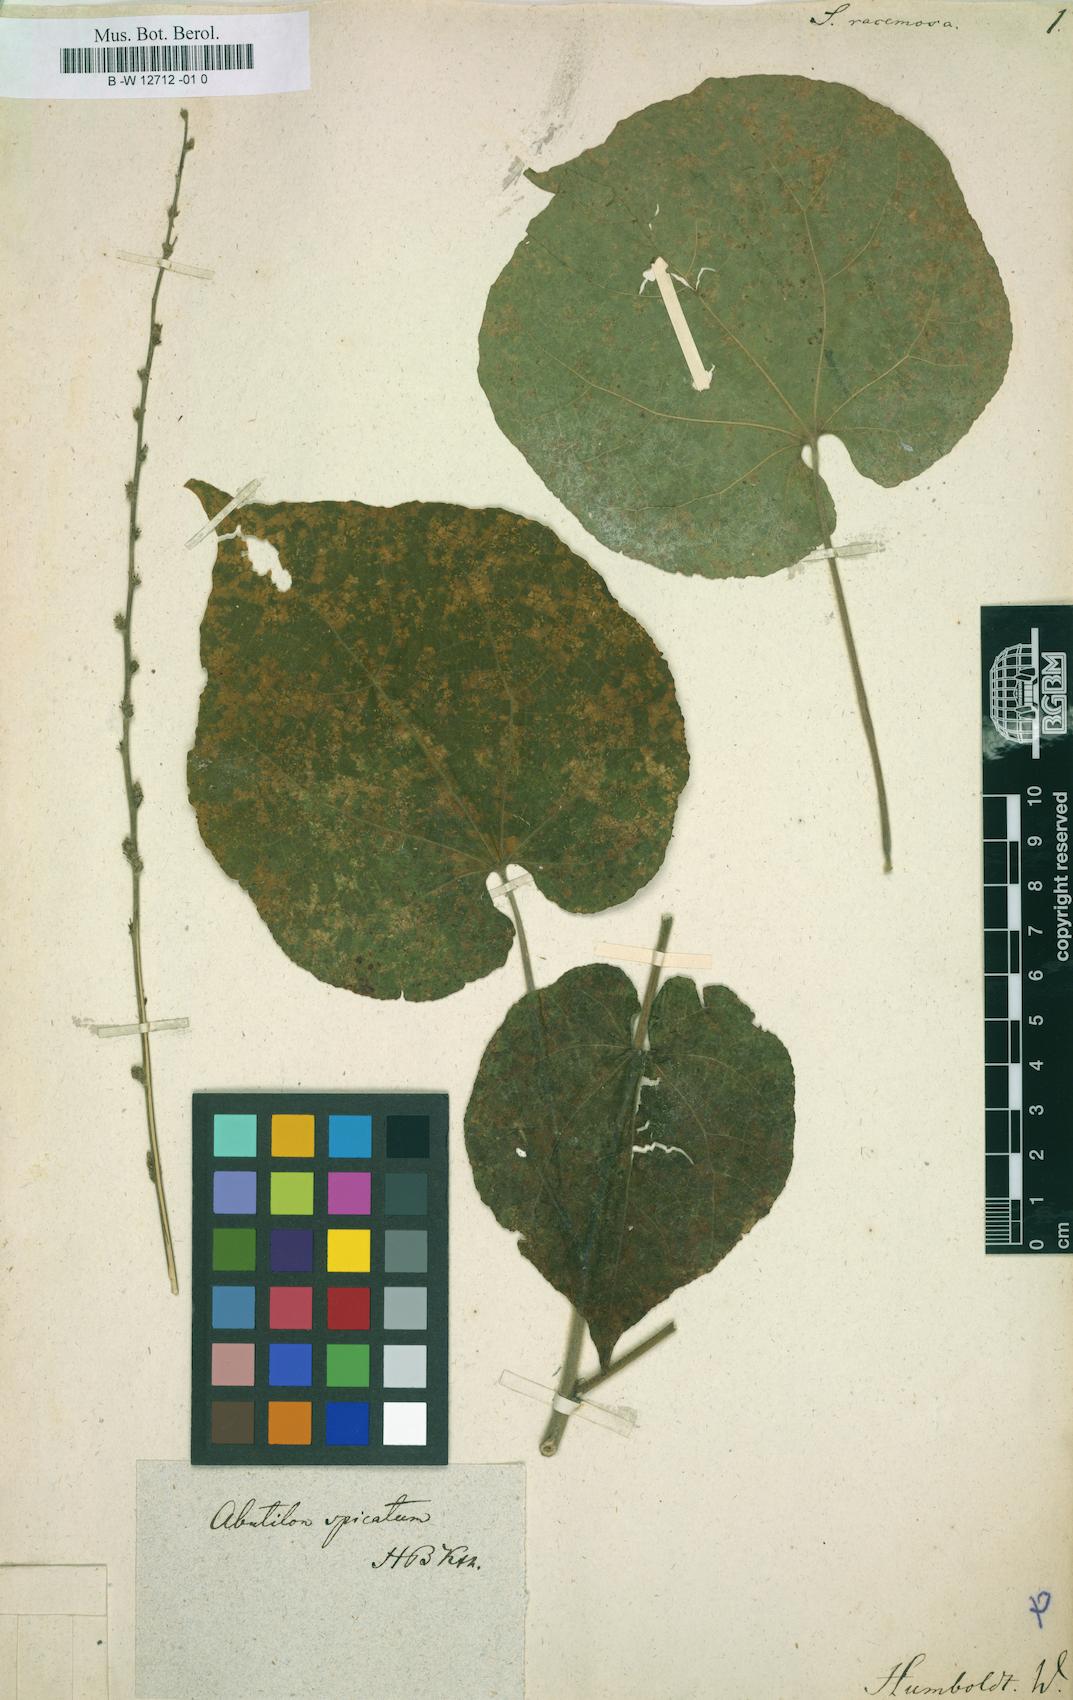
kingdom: Plantae
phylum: Tracheophyta
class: Magnoliopsida
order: Malvales
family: Malvaceae
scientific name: Malvaceae
